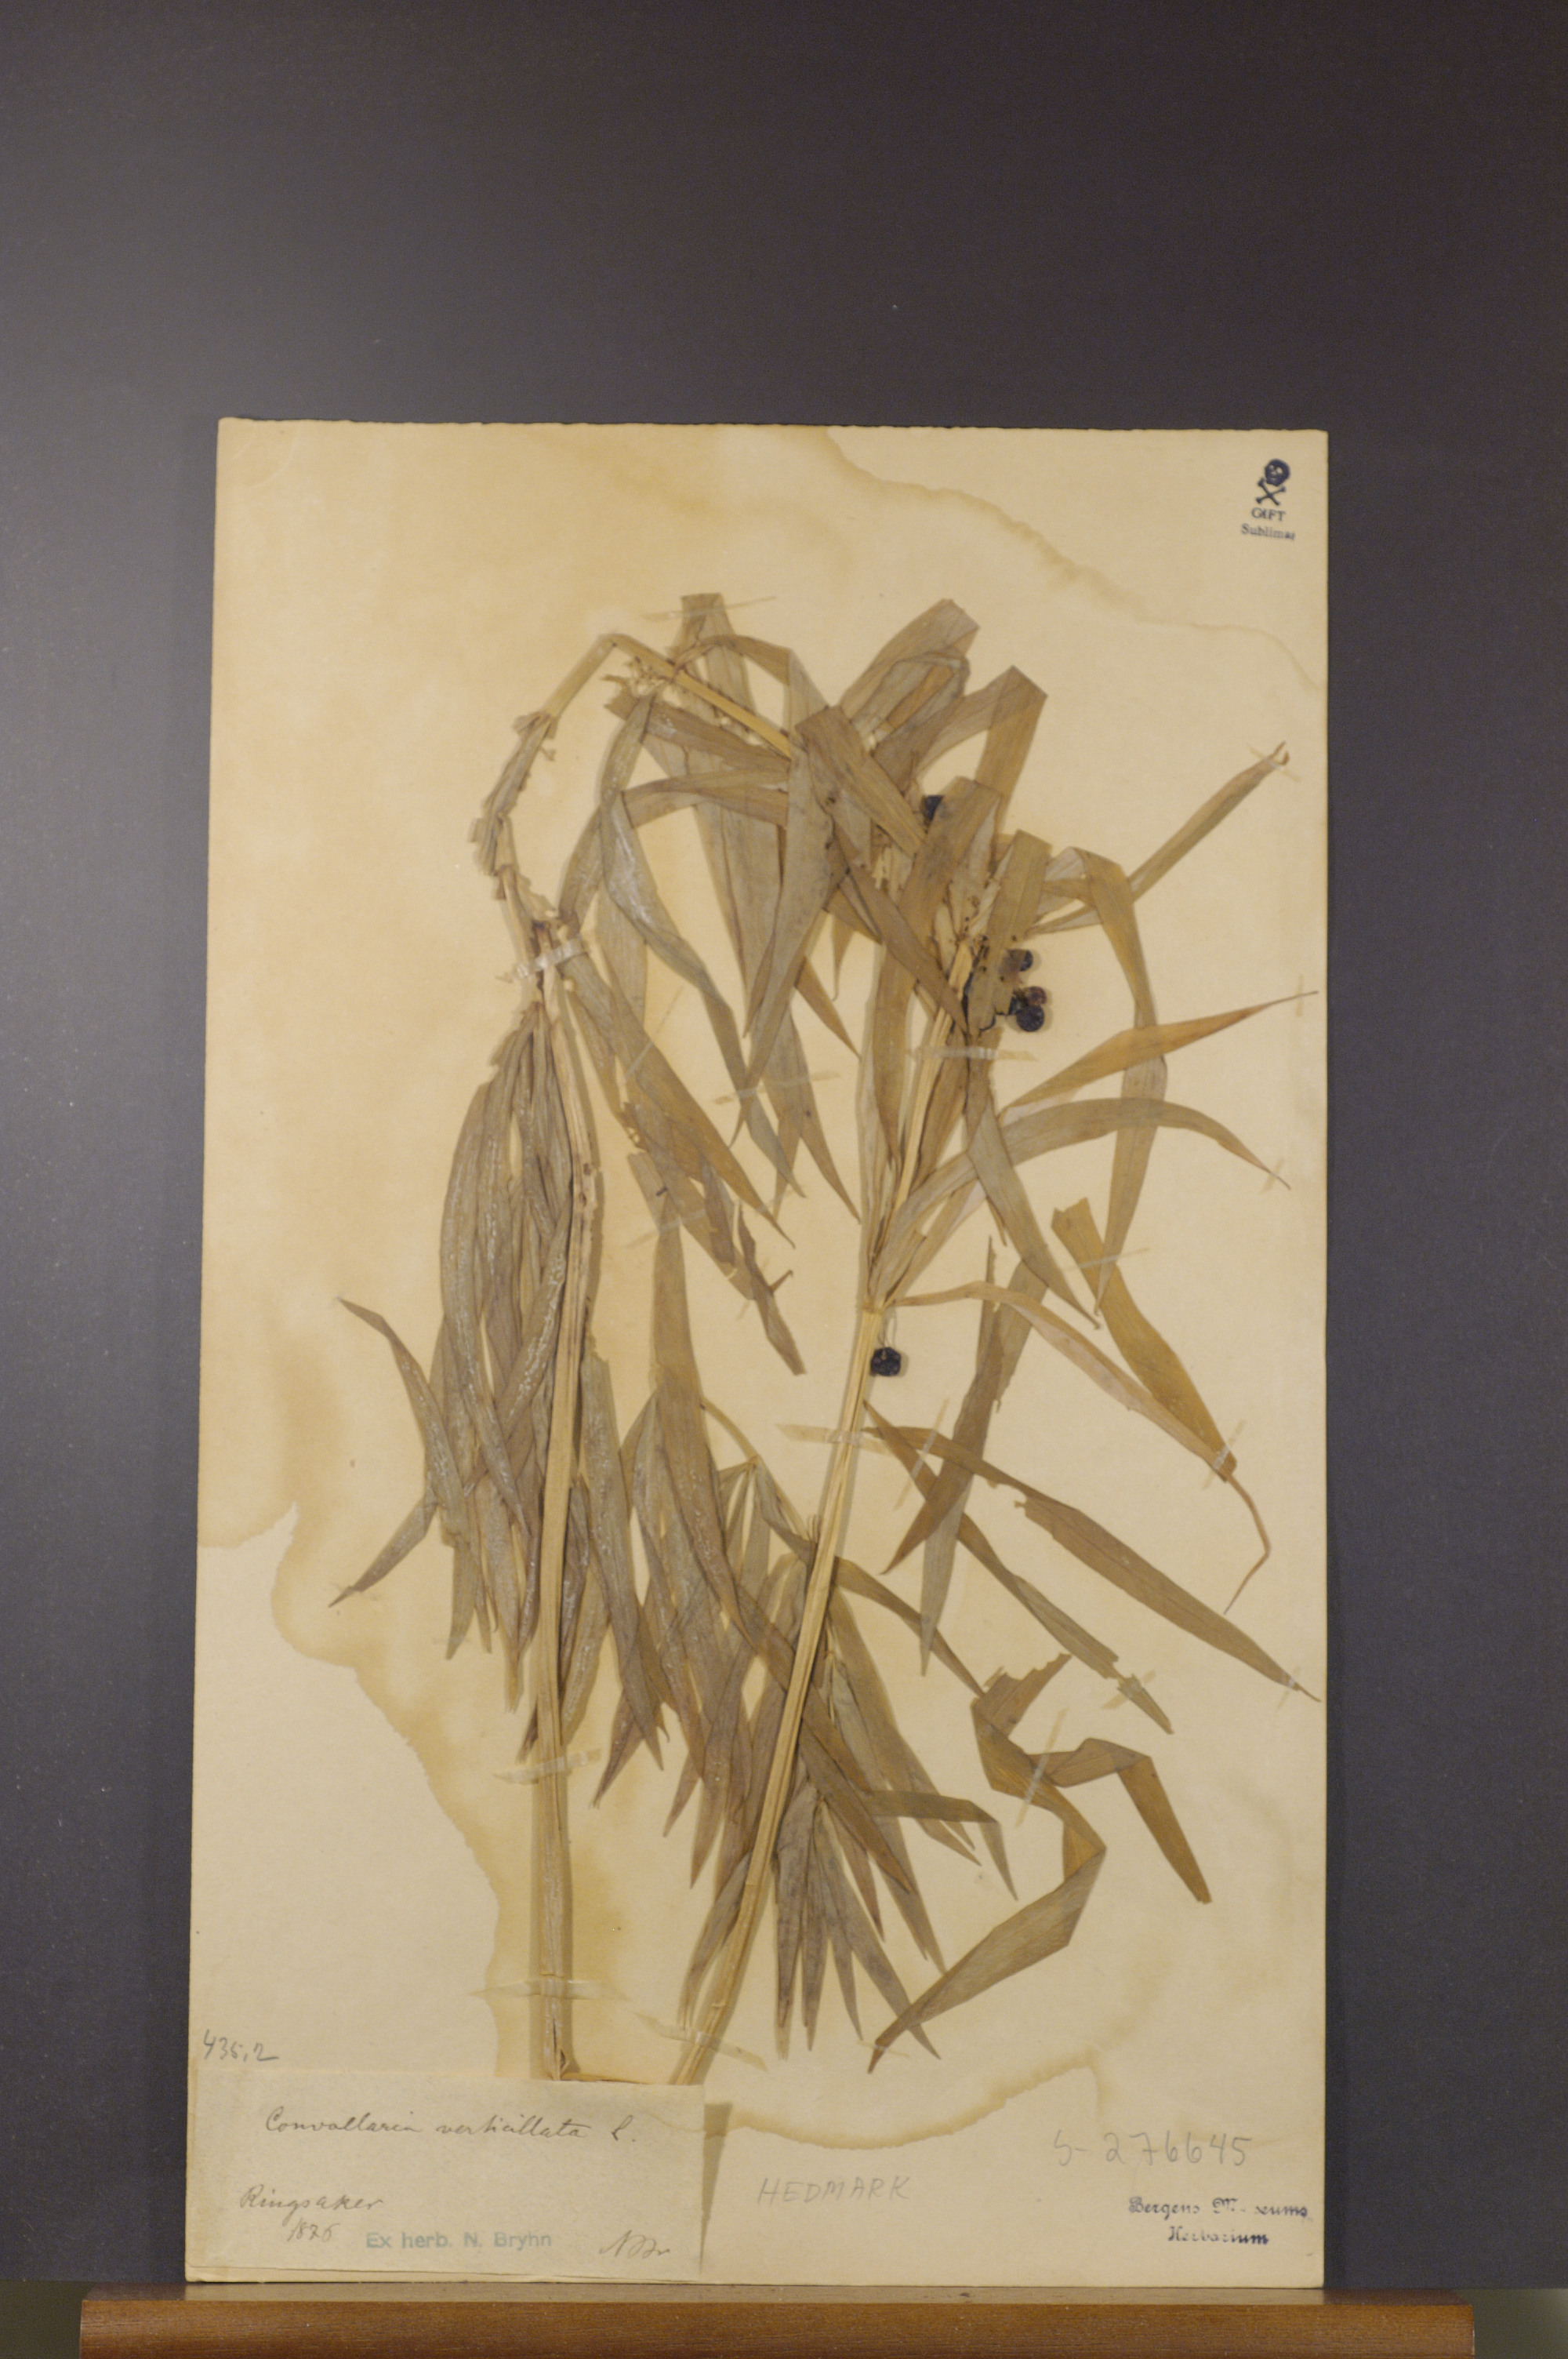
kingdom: Plantae
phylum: Tracheophyta
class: Liliopsida
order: Asparagales
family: Asparagaceae
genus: Polygonatum
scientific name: Polygonatum verticillatum
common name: Whorled solomon's-seal
